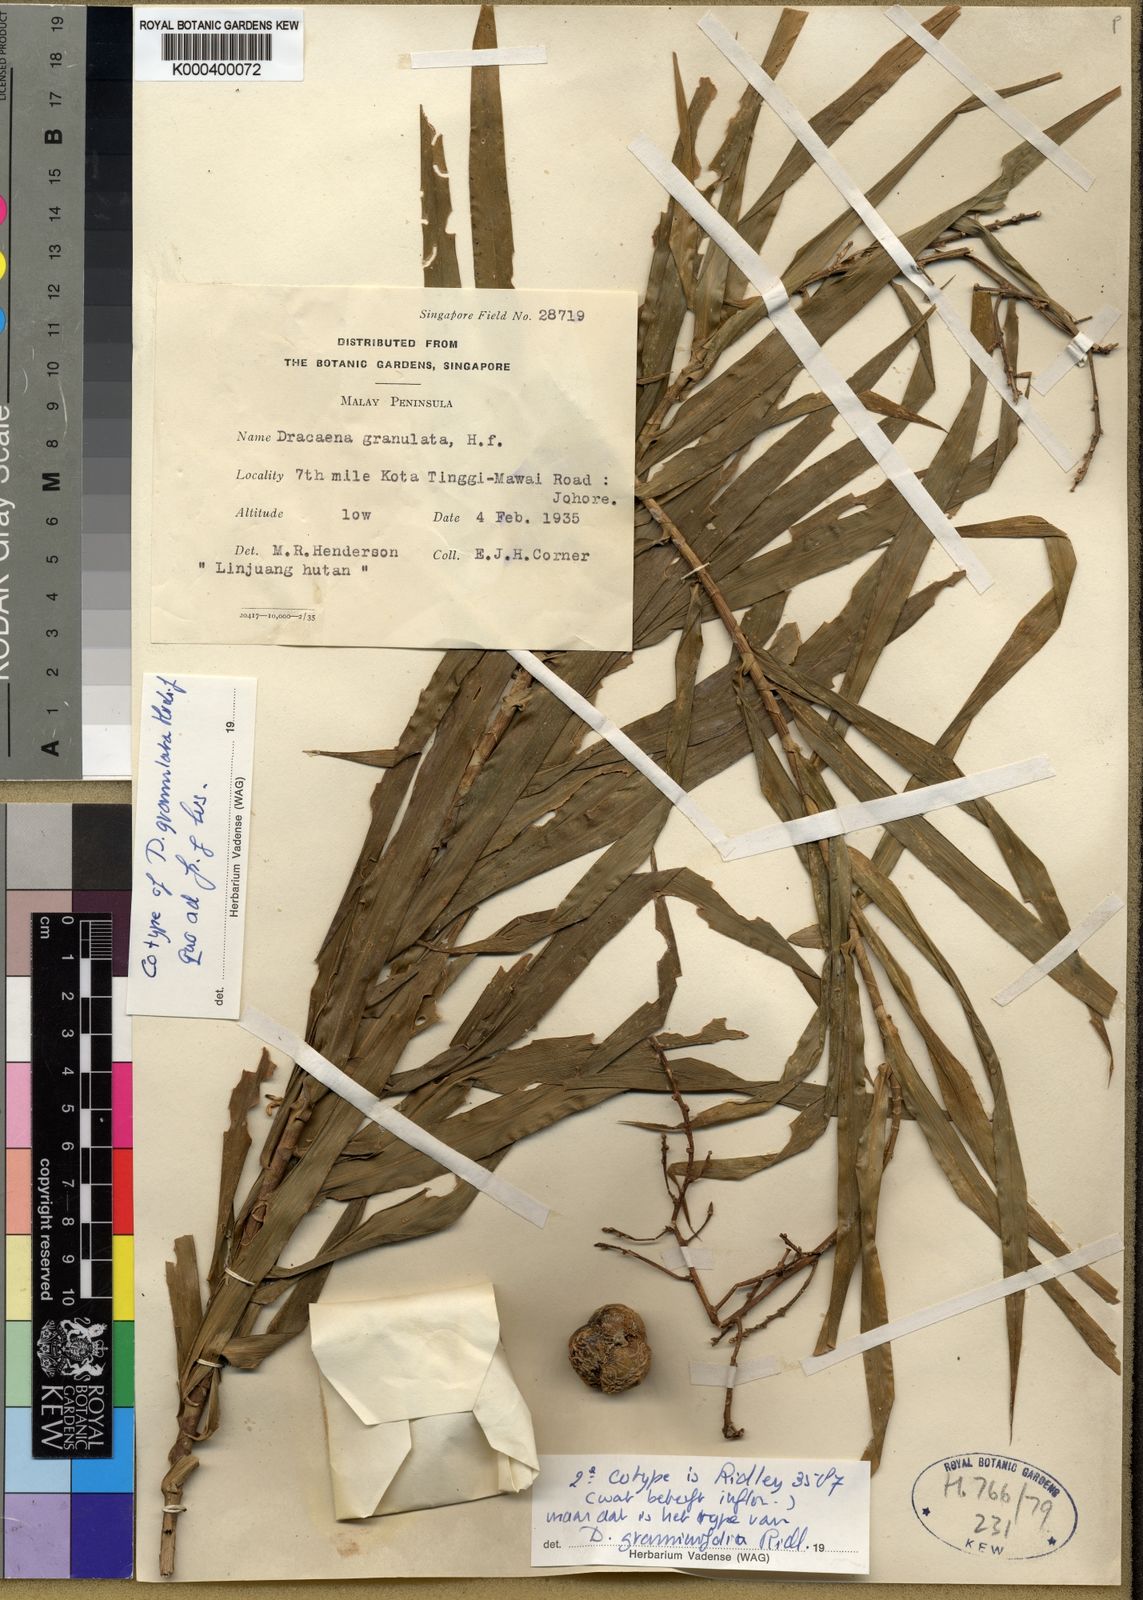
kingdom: Plantae
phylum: Tracheophyta
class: Liliopsida
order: Asparagales
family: Asparagaceae
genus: Dracaena
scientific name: Dracaena granulata
